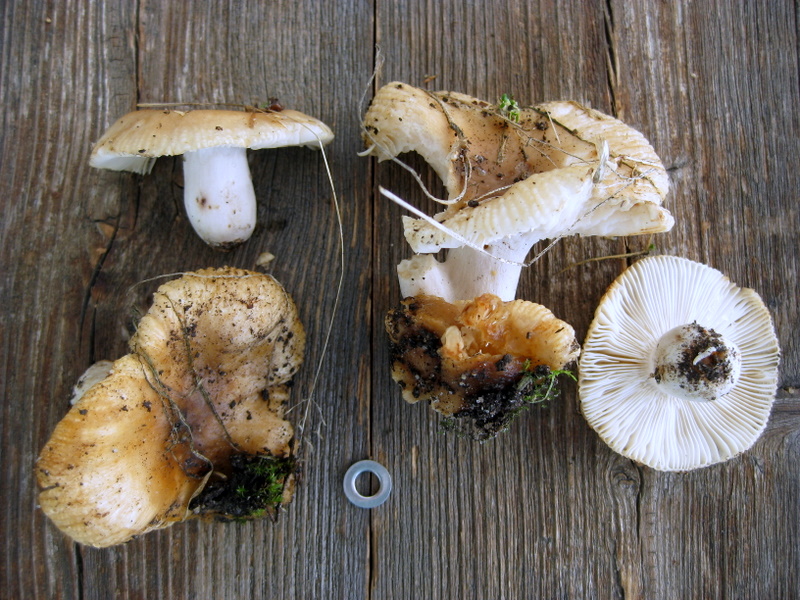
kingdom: Fungi
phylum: Basidiomycota
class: Agaricomycetes
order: Russulales
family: Russulaceae
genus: Russula
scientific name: Russula recondita
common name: mild kam-skørhat
